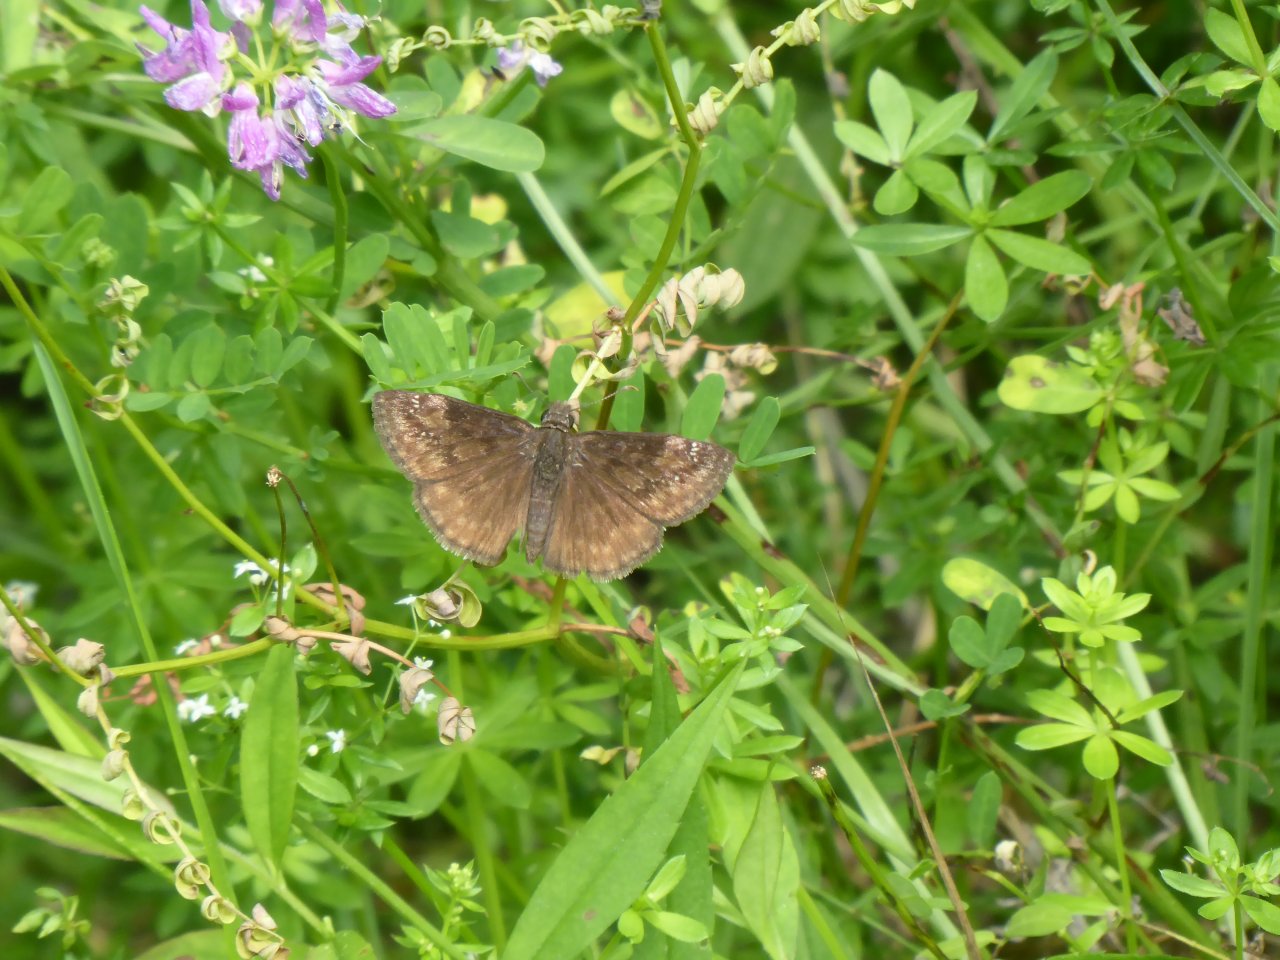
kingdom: Animalia
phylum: Arthropoda
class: Insecta
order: Lepidoptera
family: Hesperiidae
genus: Gesta
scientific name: Gesta
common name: Wild Indigo Duskywing
